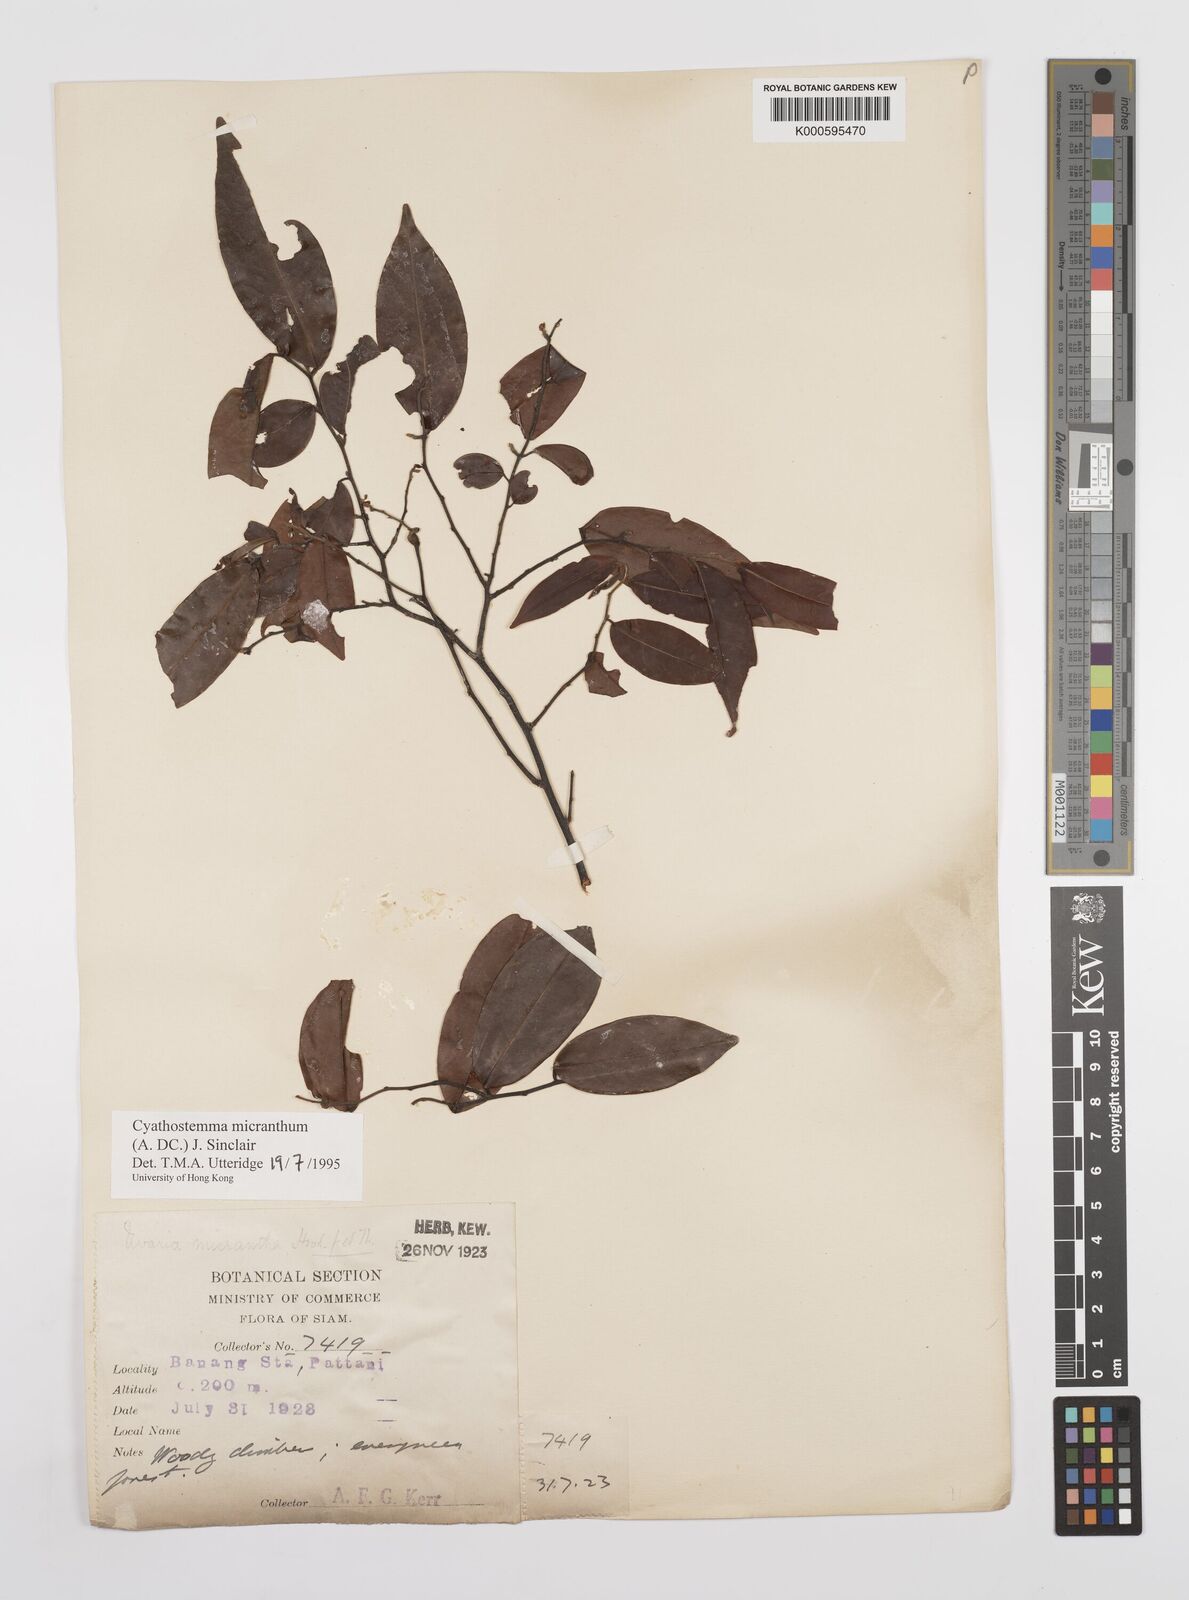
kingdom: Plantae
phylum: Tracheophyta
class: Magnoliopsida
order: Magnoliales
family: Annonaceae
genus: Uvaria
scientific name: Uvaria micrantha
